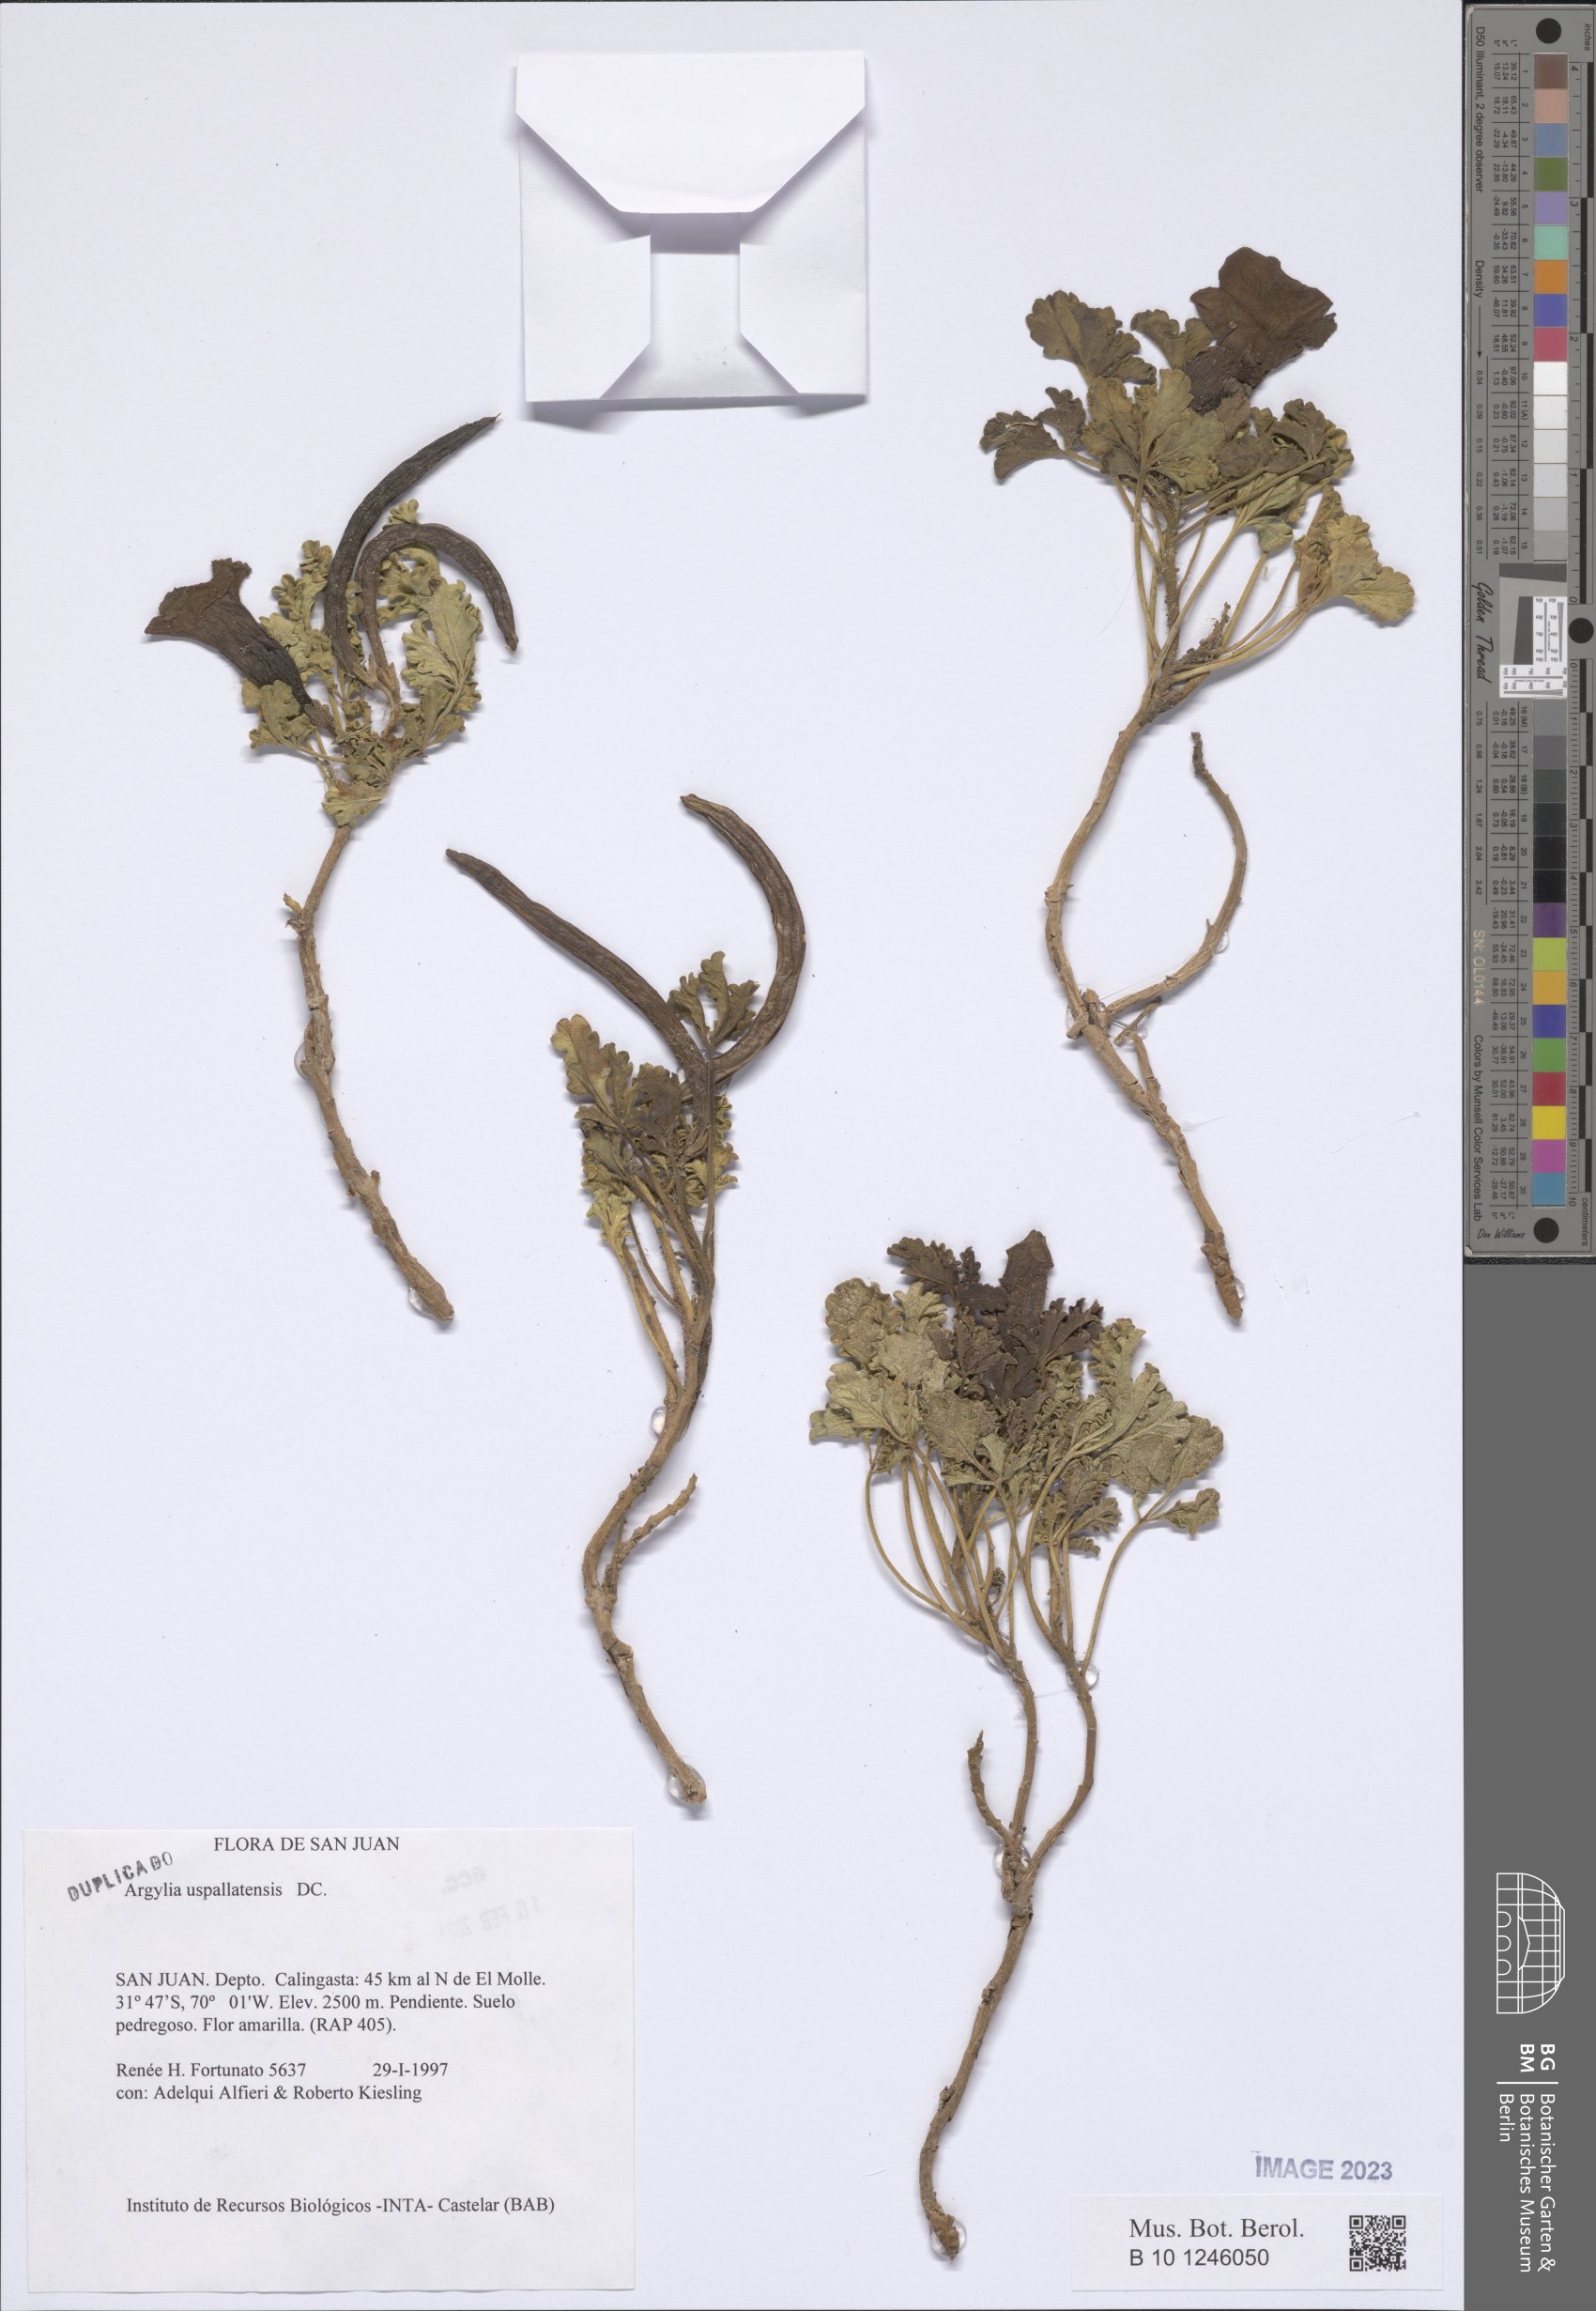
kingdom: Plantae
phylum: Tracheophyta
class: Magnoliopsida
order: Lamiales
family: Bignoniaceae
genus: Argylia
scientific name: Argylia uspallatensis
